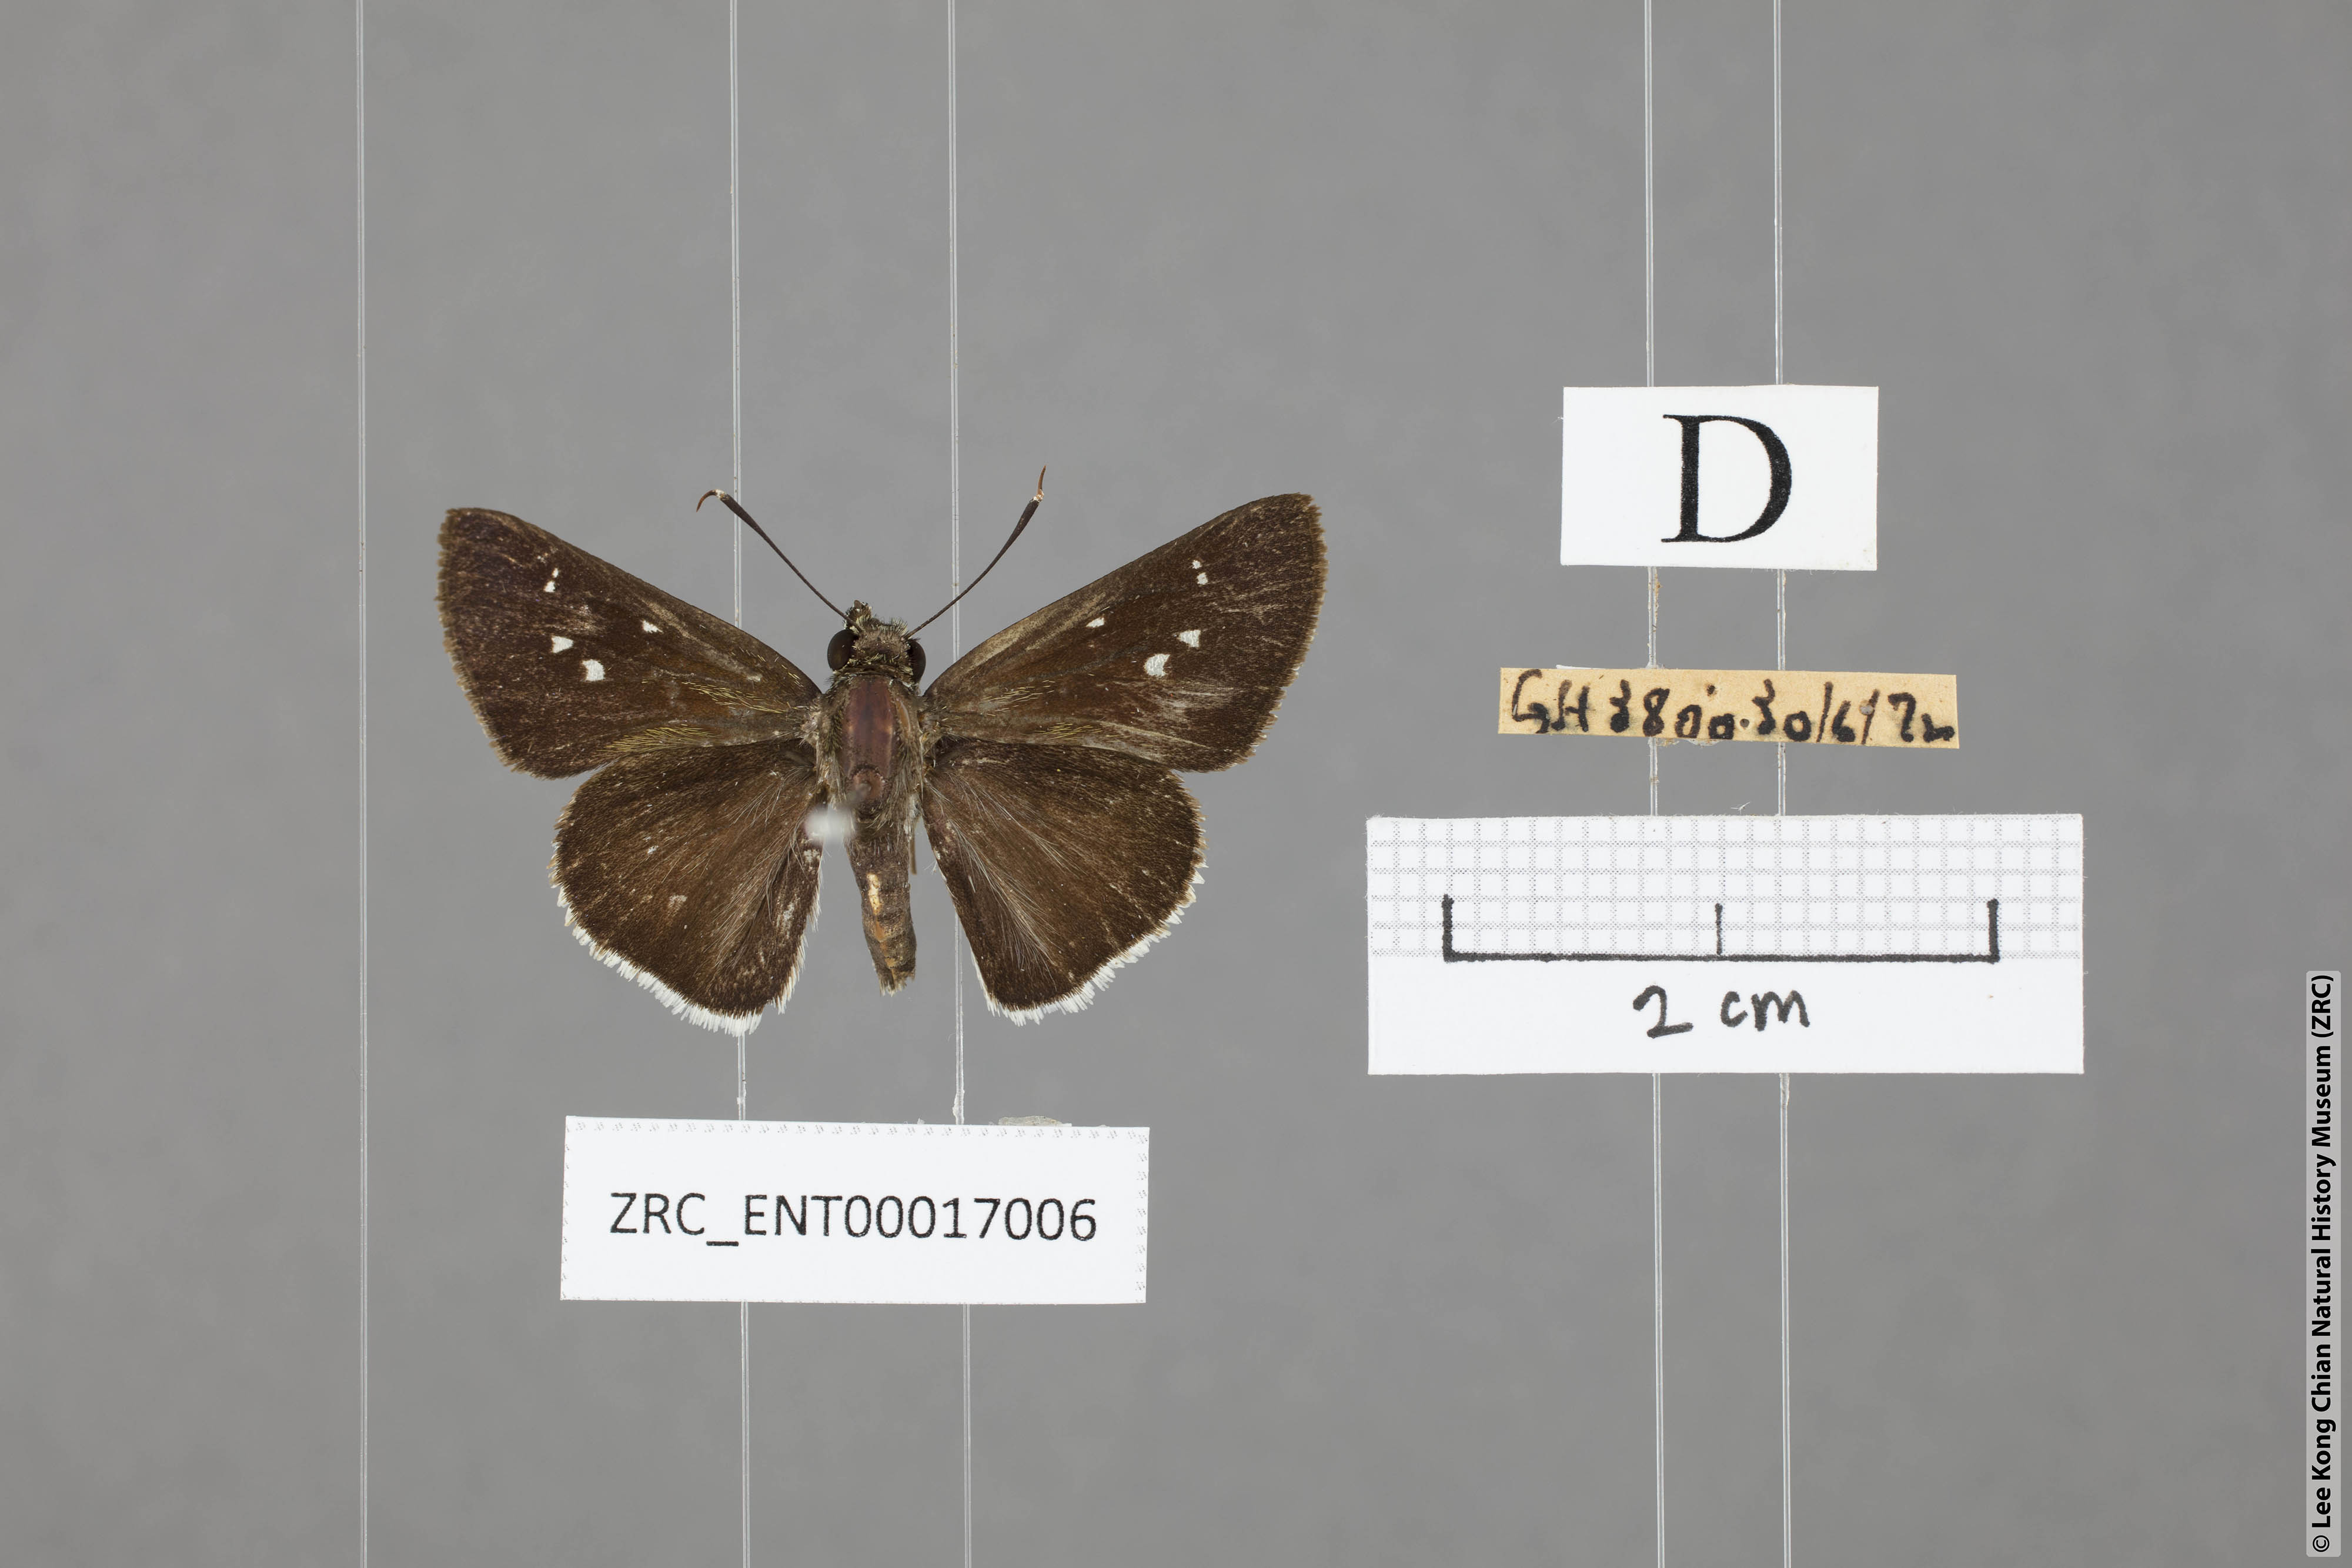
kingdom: Animalia
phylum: Arthropoda
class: Insecta
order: Lepidoptera
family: Hesperiidae
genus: Halpe
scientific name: Halpe insignis
